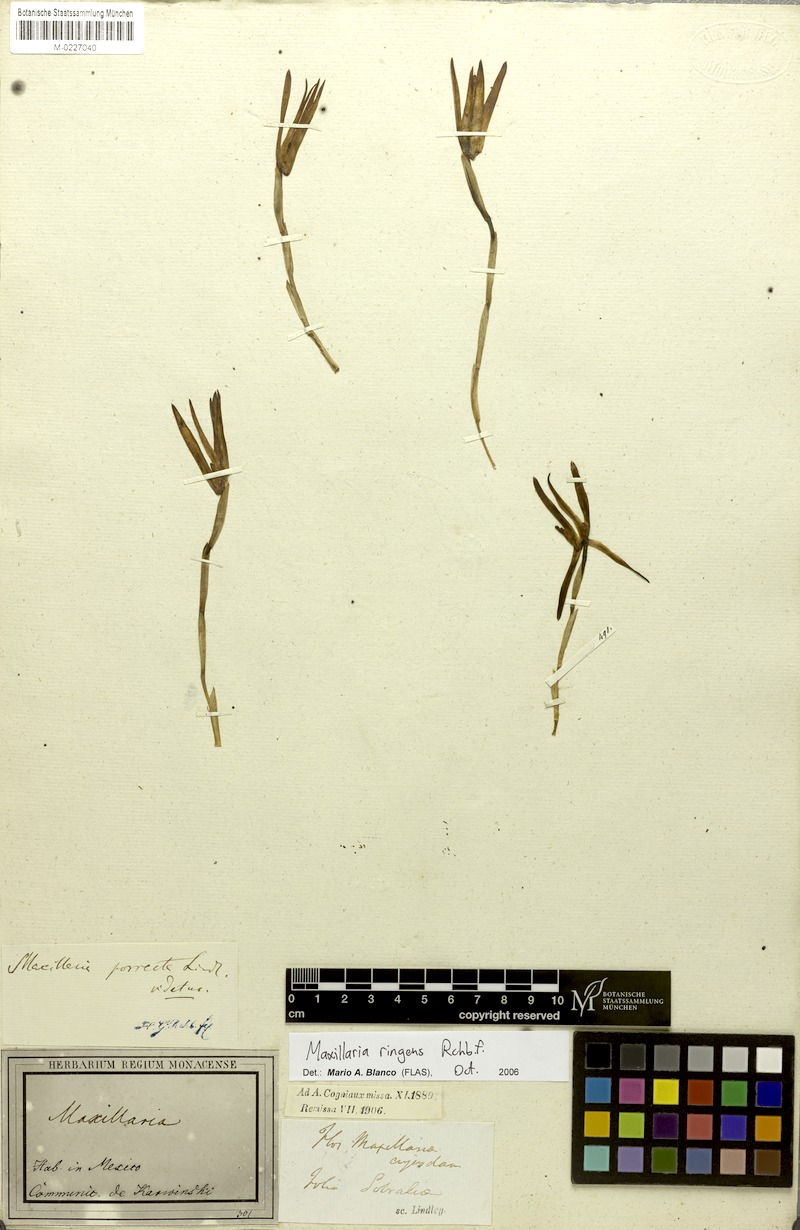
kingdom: Plantae
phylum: Tracheophyta
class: Liliopsida
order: Asparagales
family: Orchidaceae
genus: Maxillaria
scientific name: Maxillaria ringens
